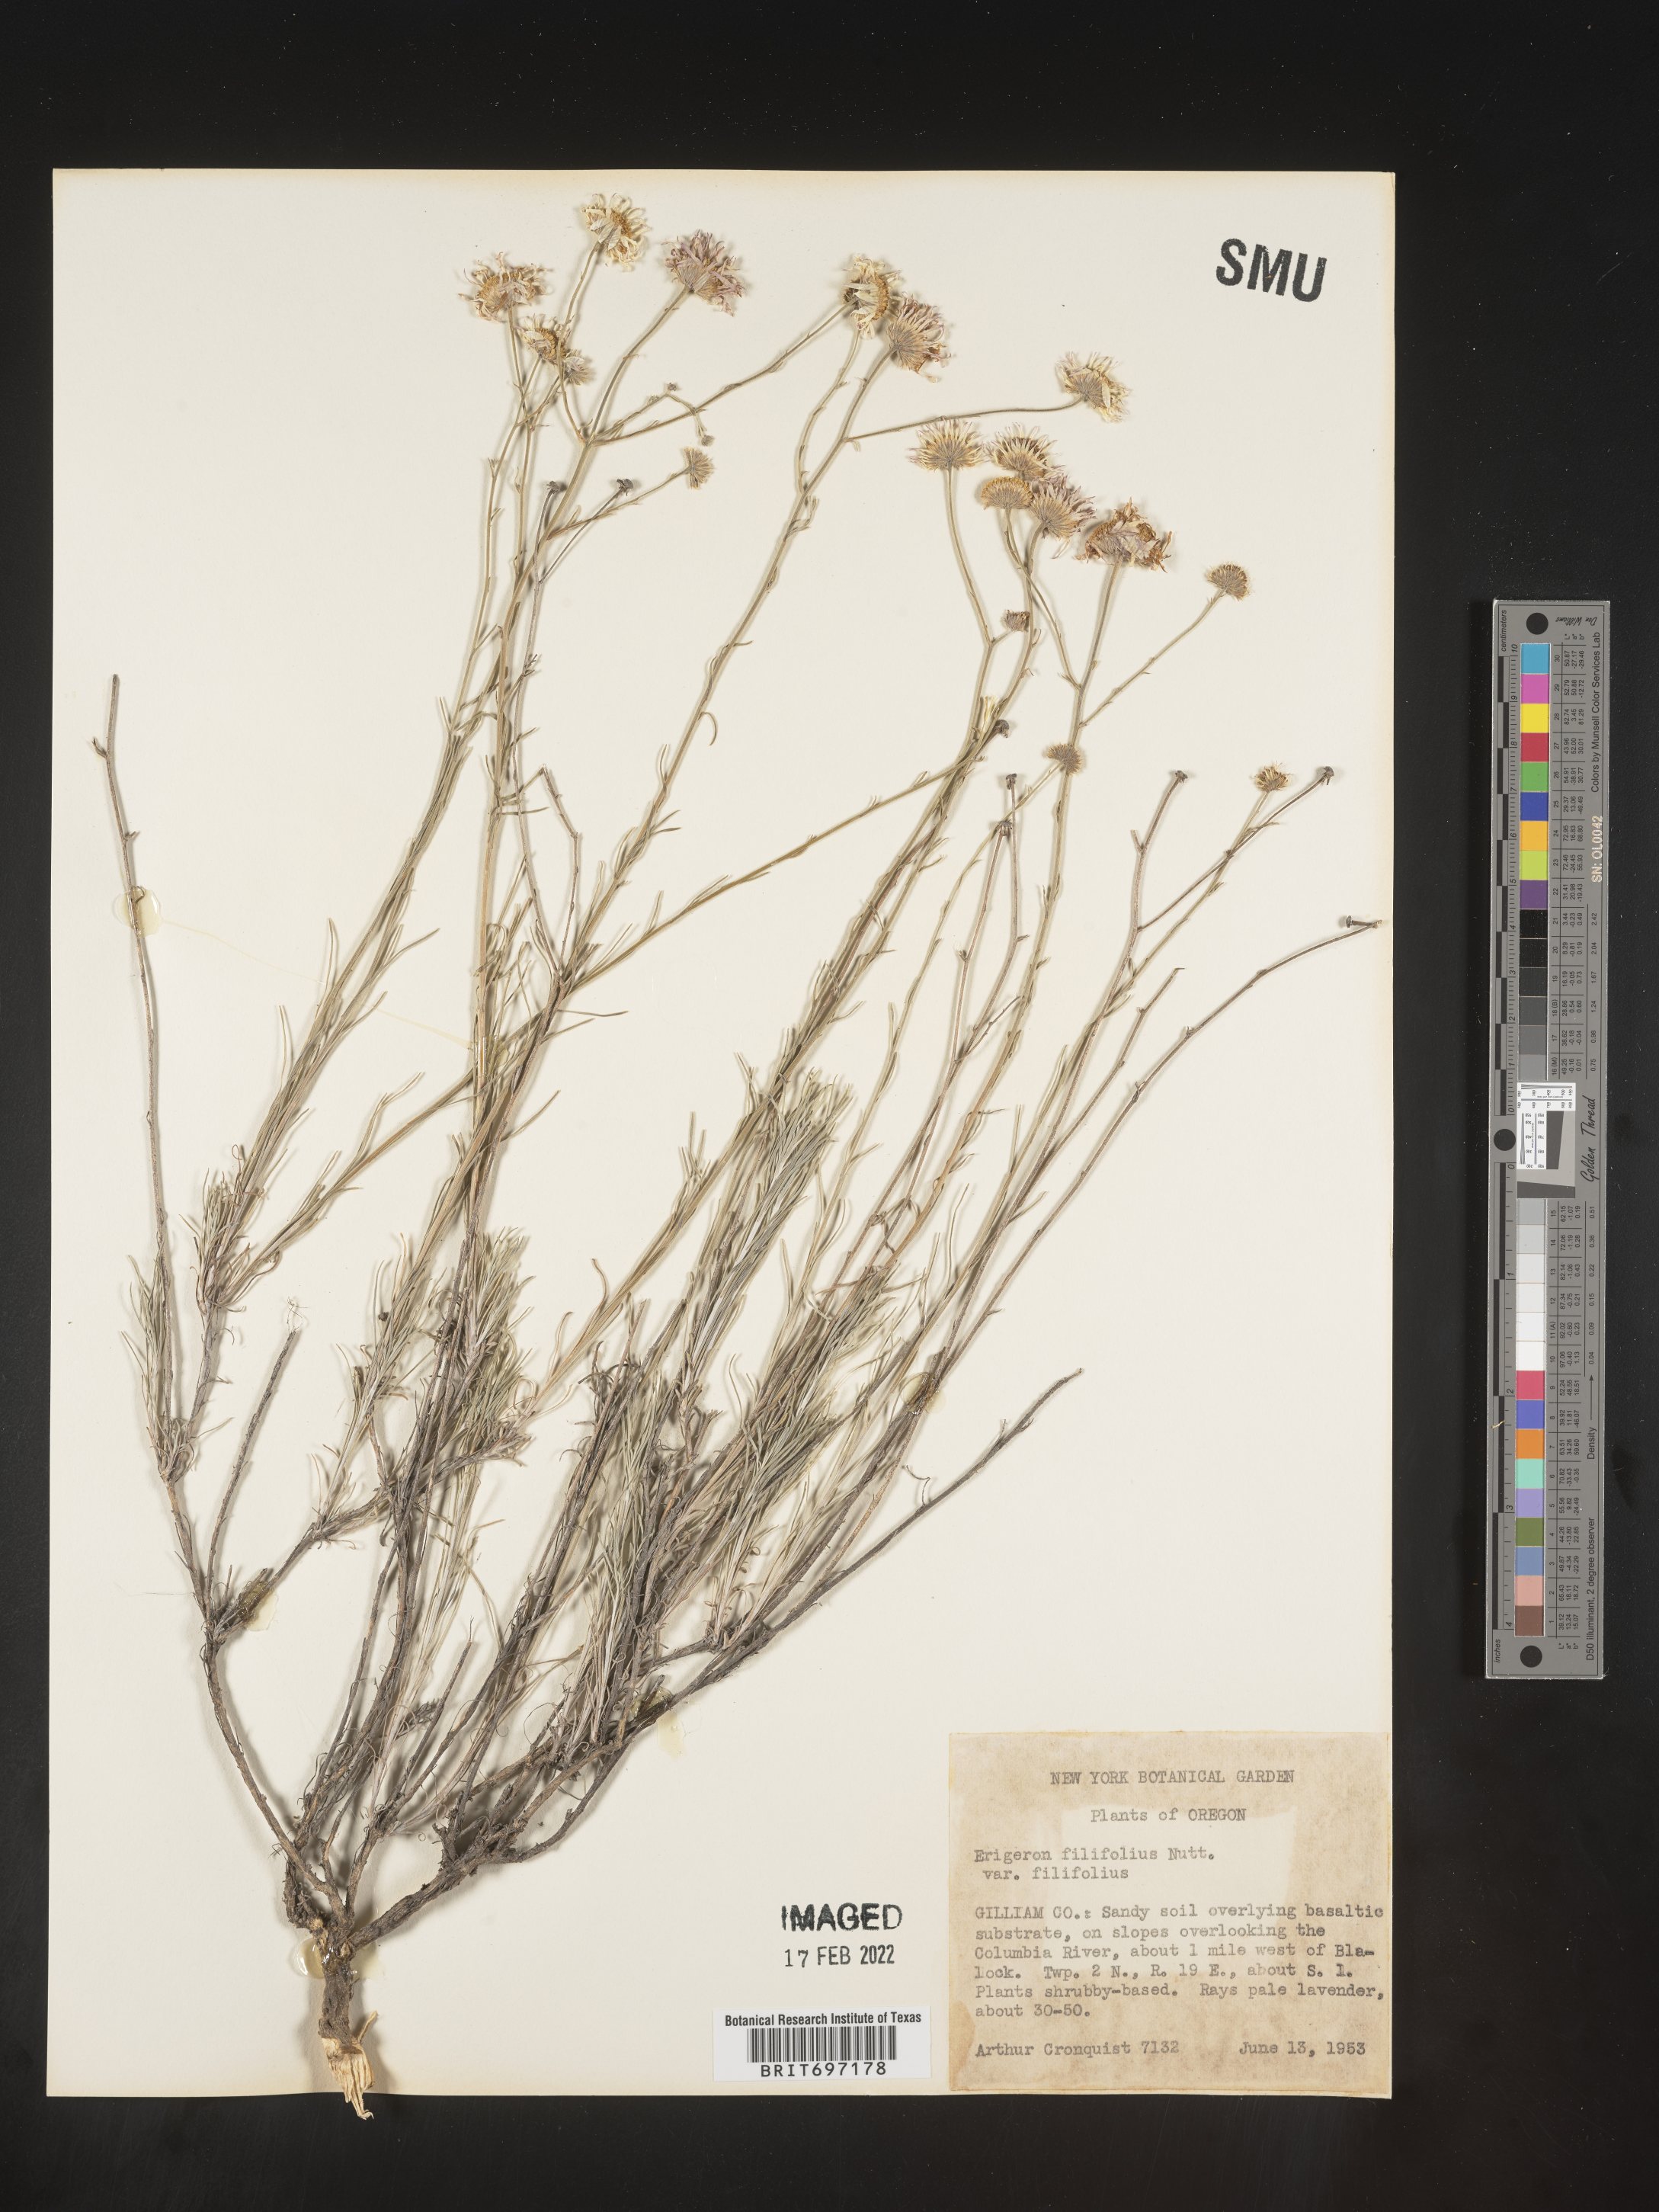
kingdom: Plantae
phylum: Tracheophyta
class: Magnoliopsida
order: Asterales
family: Asteraceae
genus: Erigeron
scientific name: Erigeron filifolius
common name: Threadleaf fleabane
